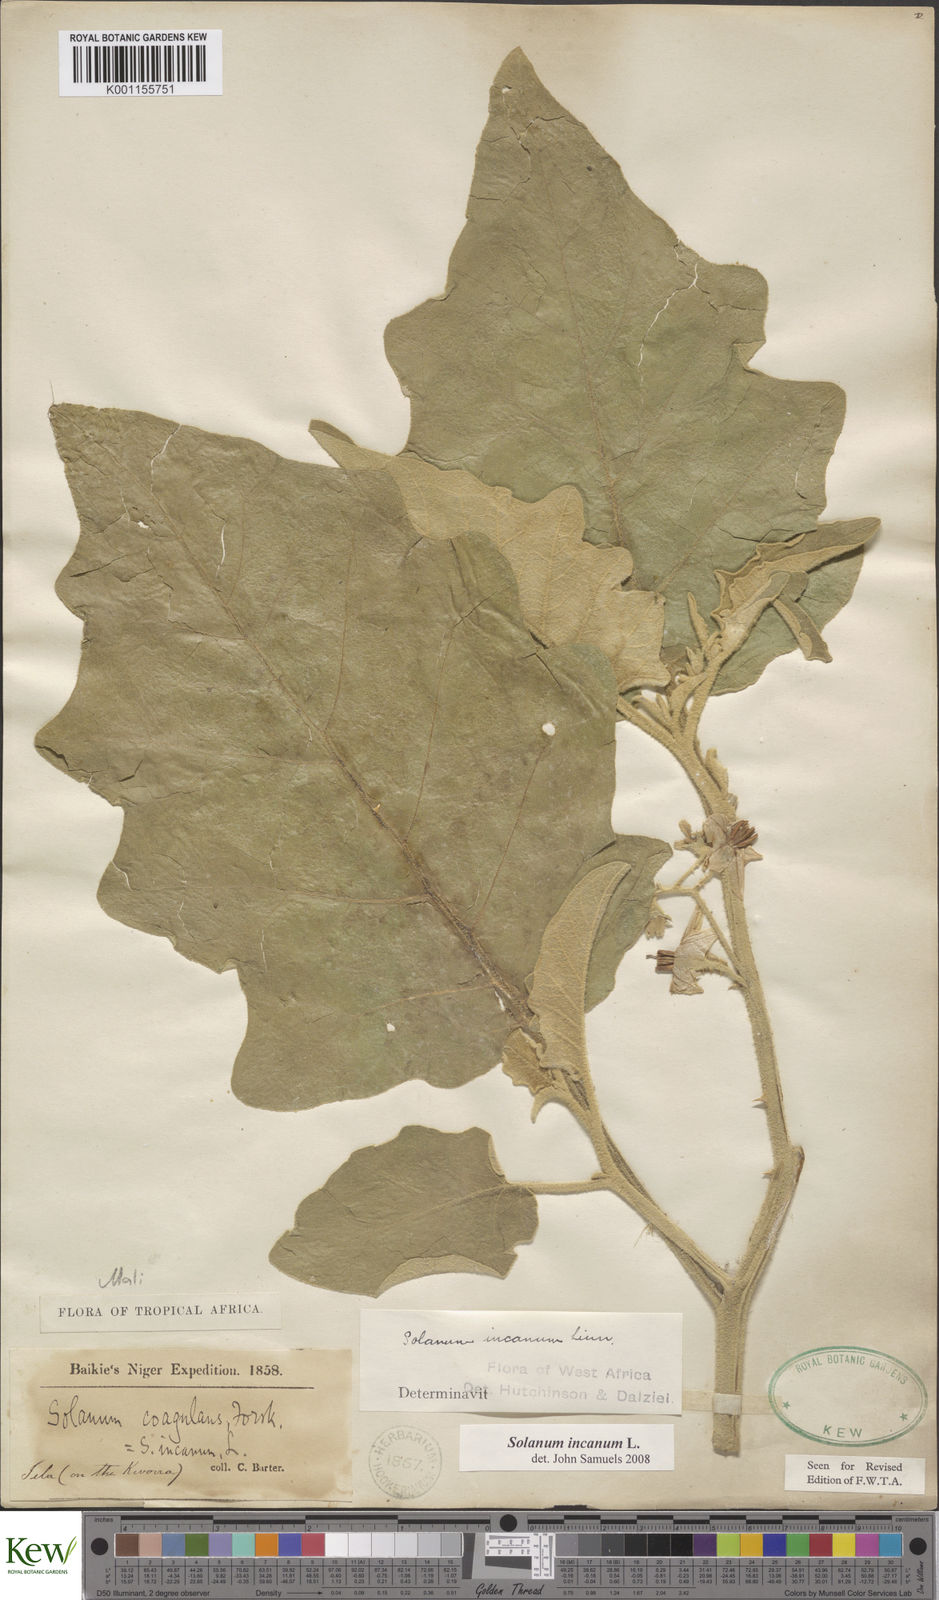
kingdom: Plantae
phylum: Tracheophyta
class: Magnoliopsida
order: Solanales
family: Solanaceae
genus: Solanum
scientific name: Solanum incanum
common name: Bitter apple
